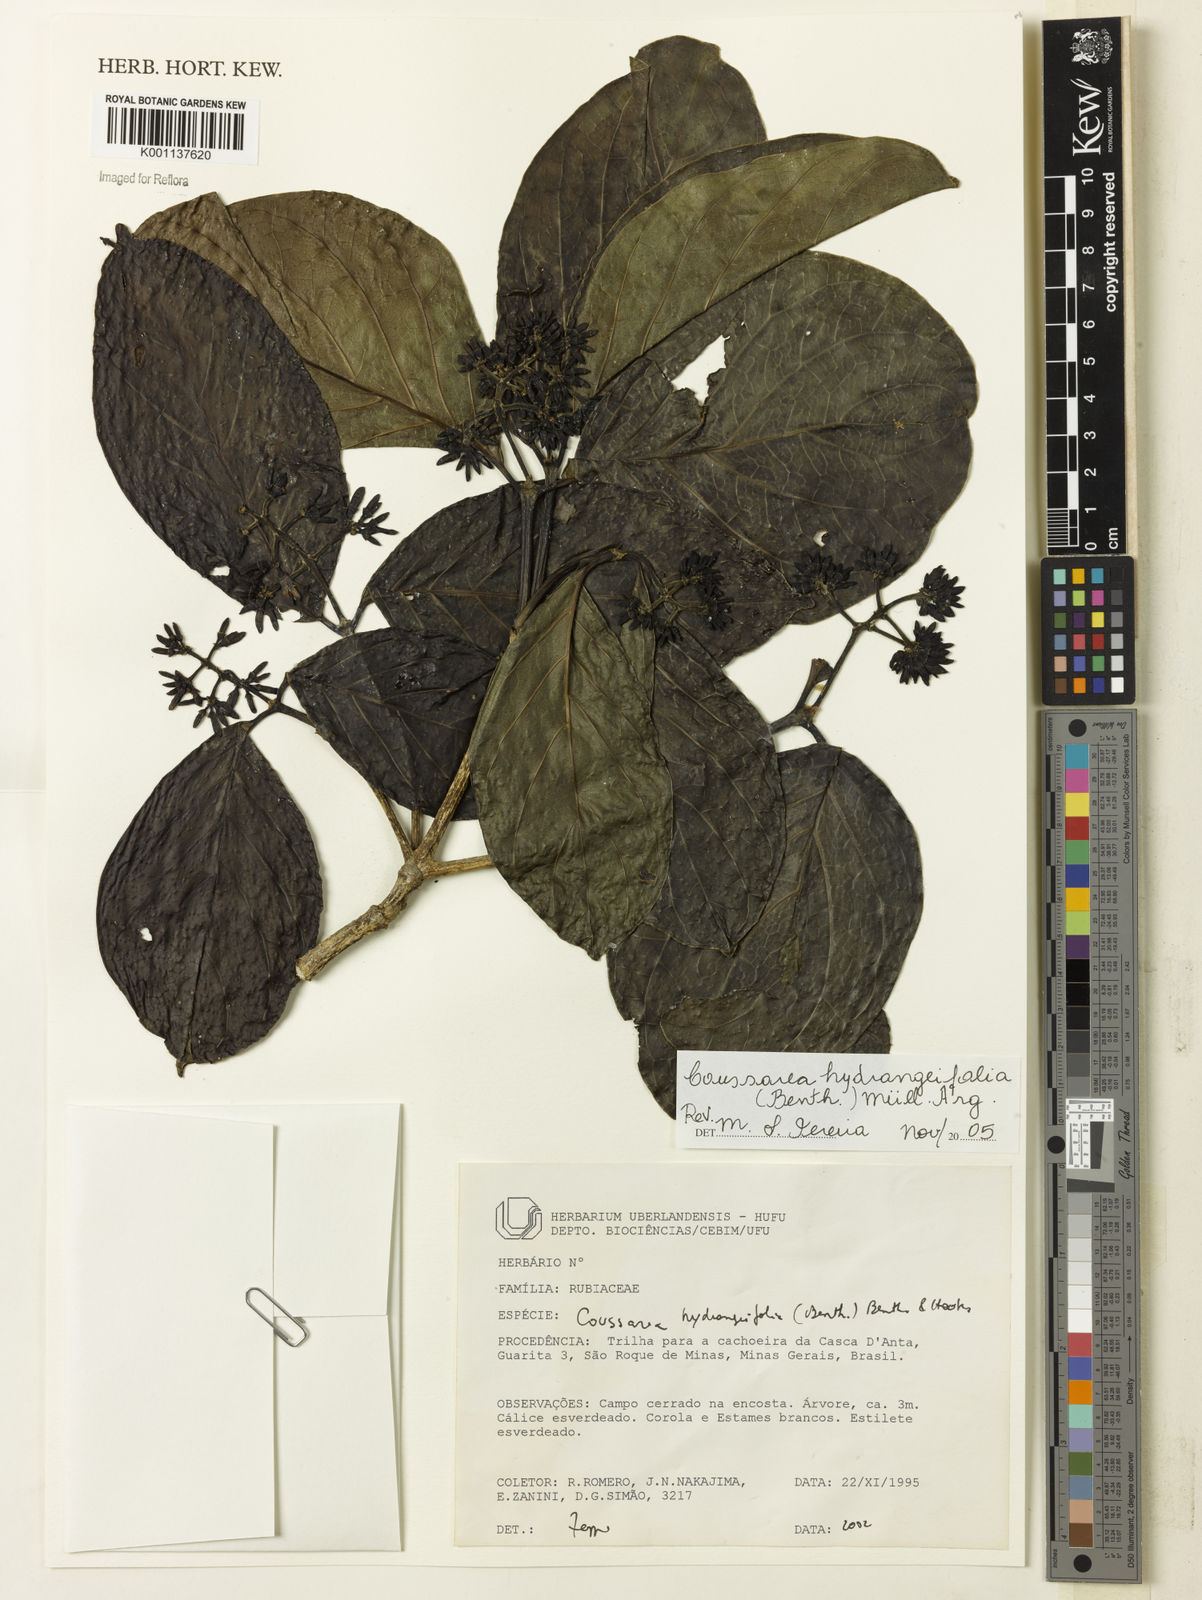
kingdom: Plantae
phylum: Tracheophyta
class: Magnoliopsida
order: Gentianales
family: Rubiaceae
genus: Coussarea
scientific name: Coussarea
